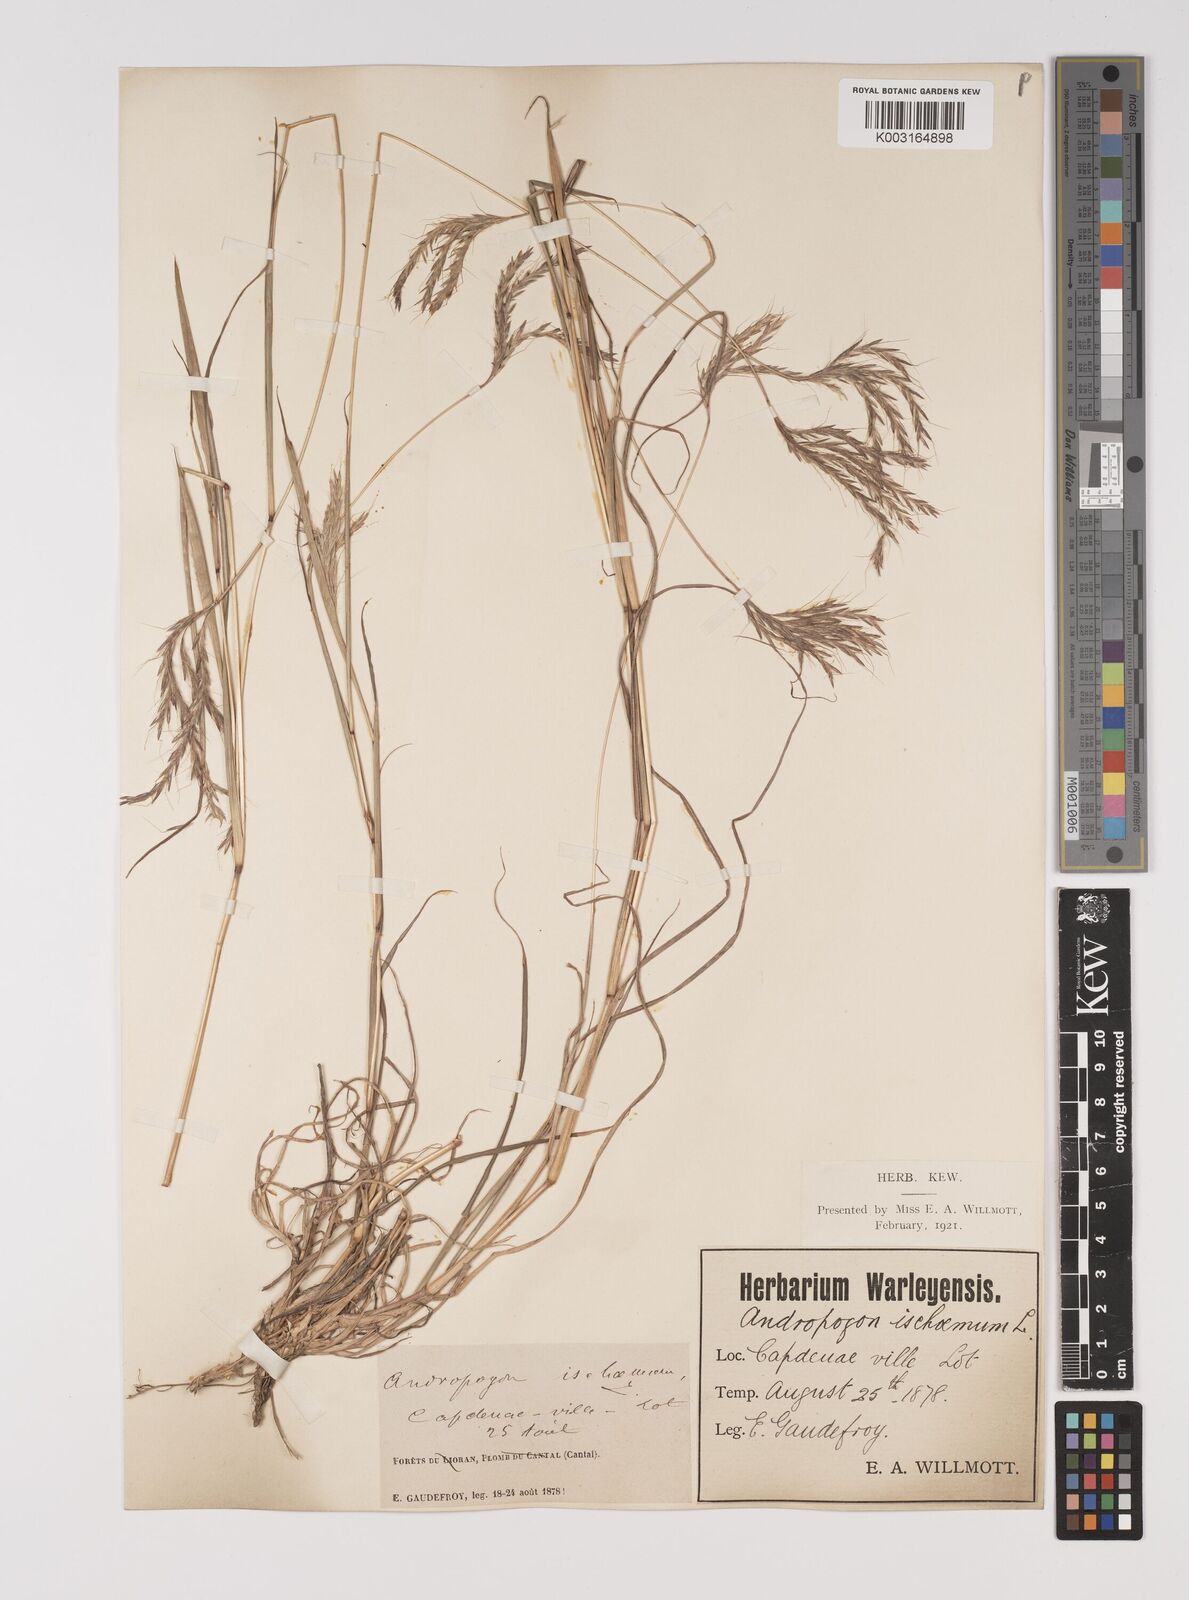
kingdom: Plantae
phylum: Tracheophyta
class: Liliopsida
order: Poales
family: Poaceae
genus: Bothriochloa
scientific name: Bothriochloa ischaemum
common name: Yellow bluestem
